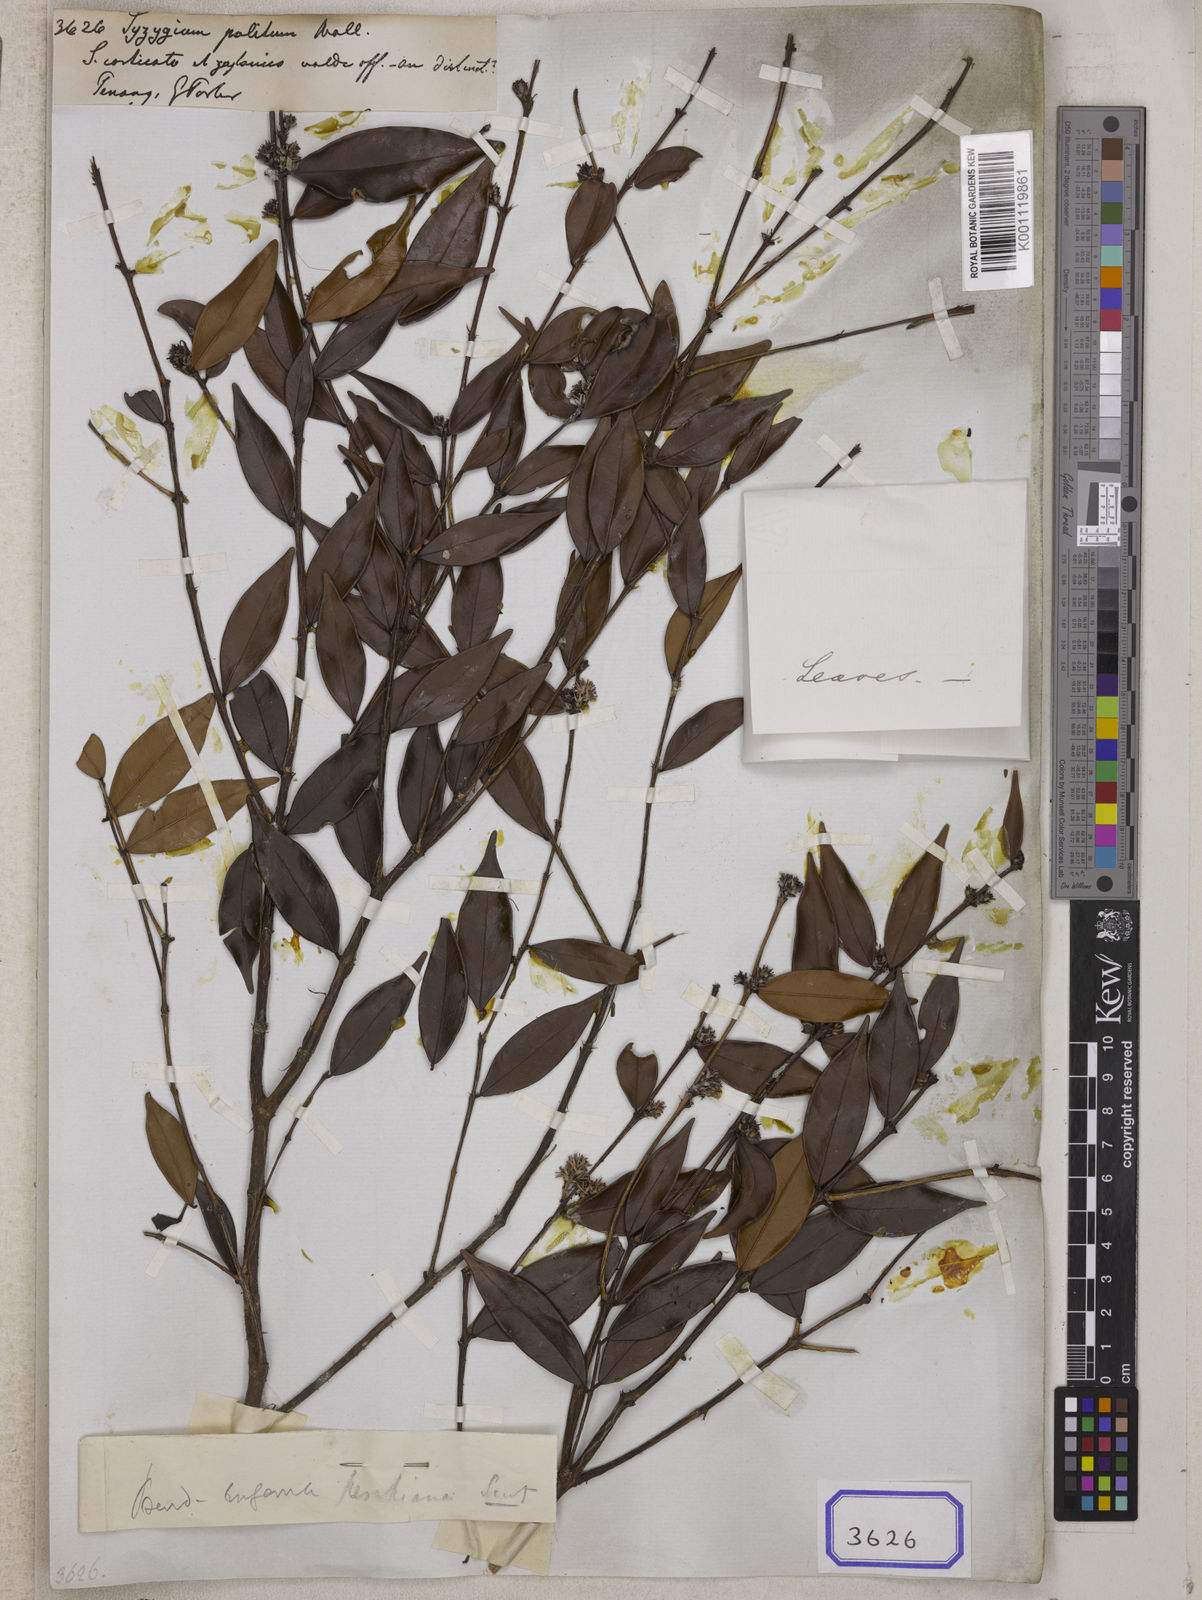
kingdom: Plantae
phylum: Tracheophyta
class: Magnoliopsida
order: Myrtales
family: Myrtaceae
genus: Syzygium
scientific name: Syzygium
